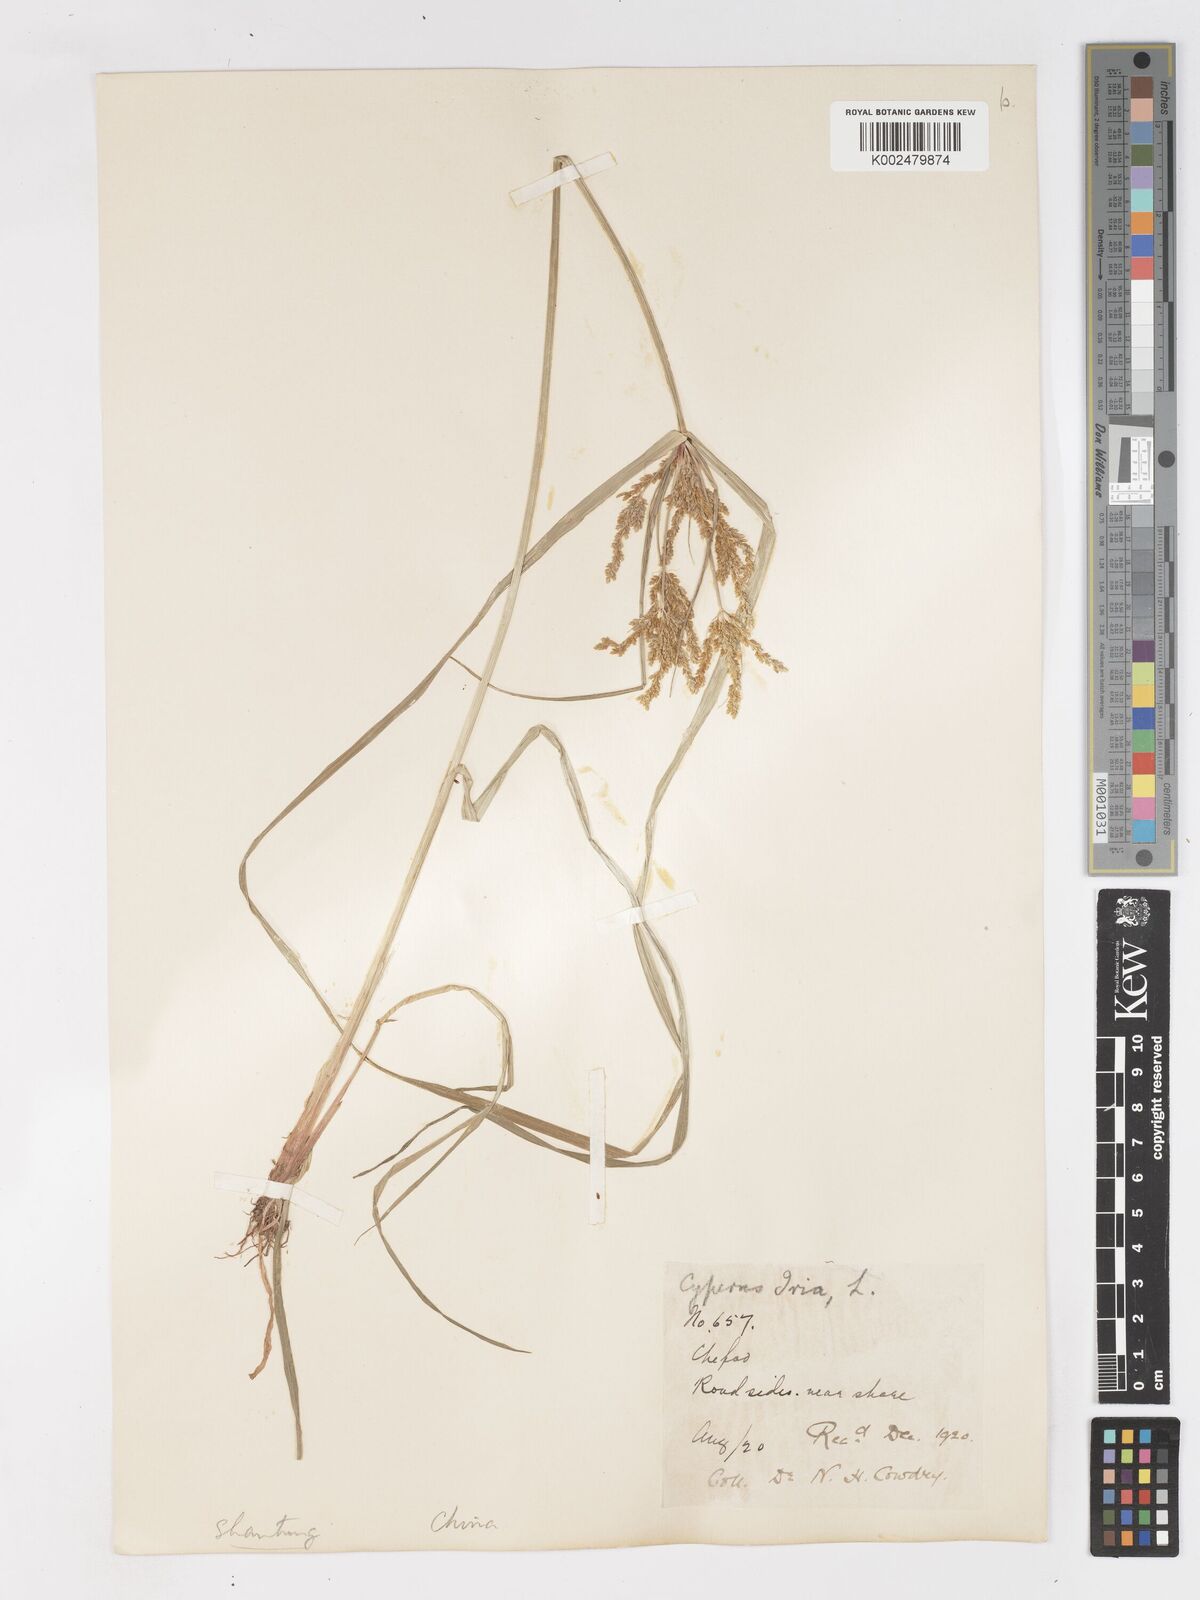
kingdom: Plantae
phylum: Tracheophyta
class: Liliopsida
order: Poales
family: Cyperaceae
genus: Cyperus
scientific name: Cyperus iria
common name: Ricefield flatsedge
